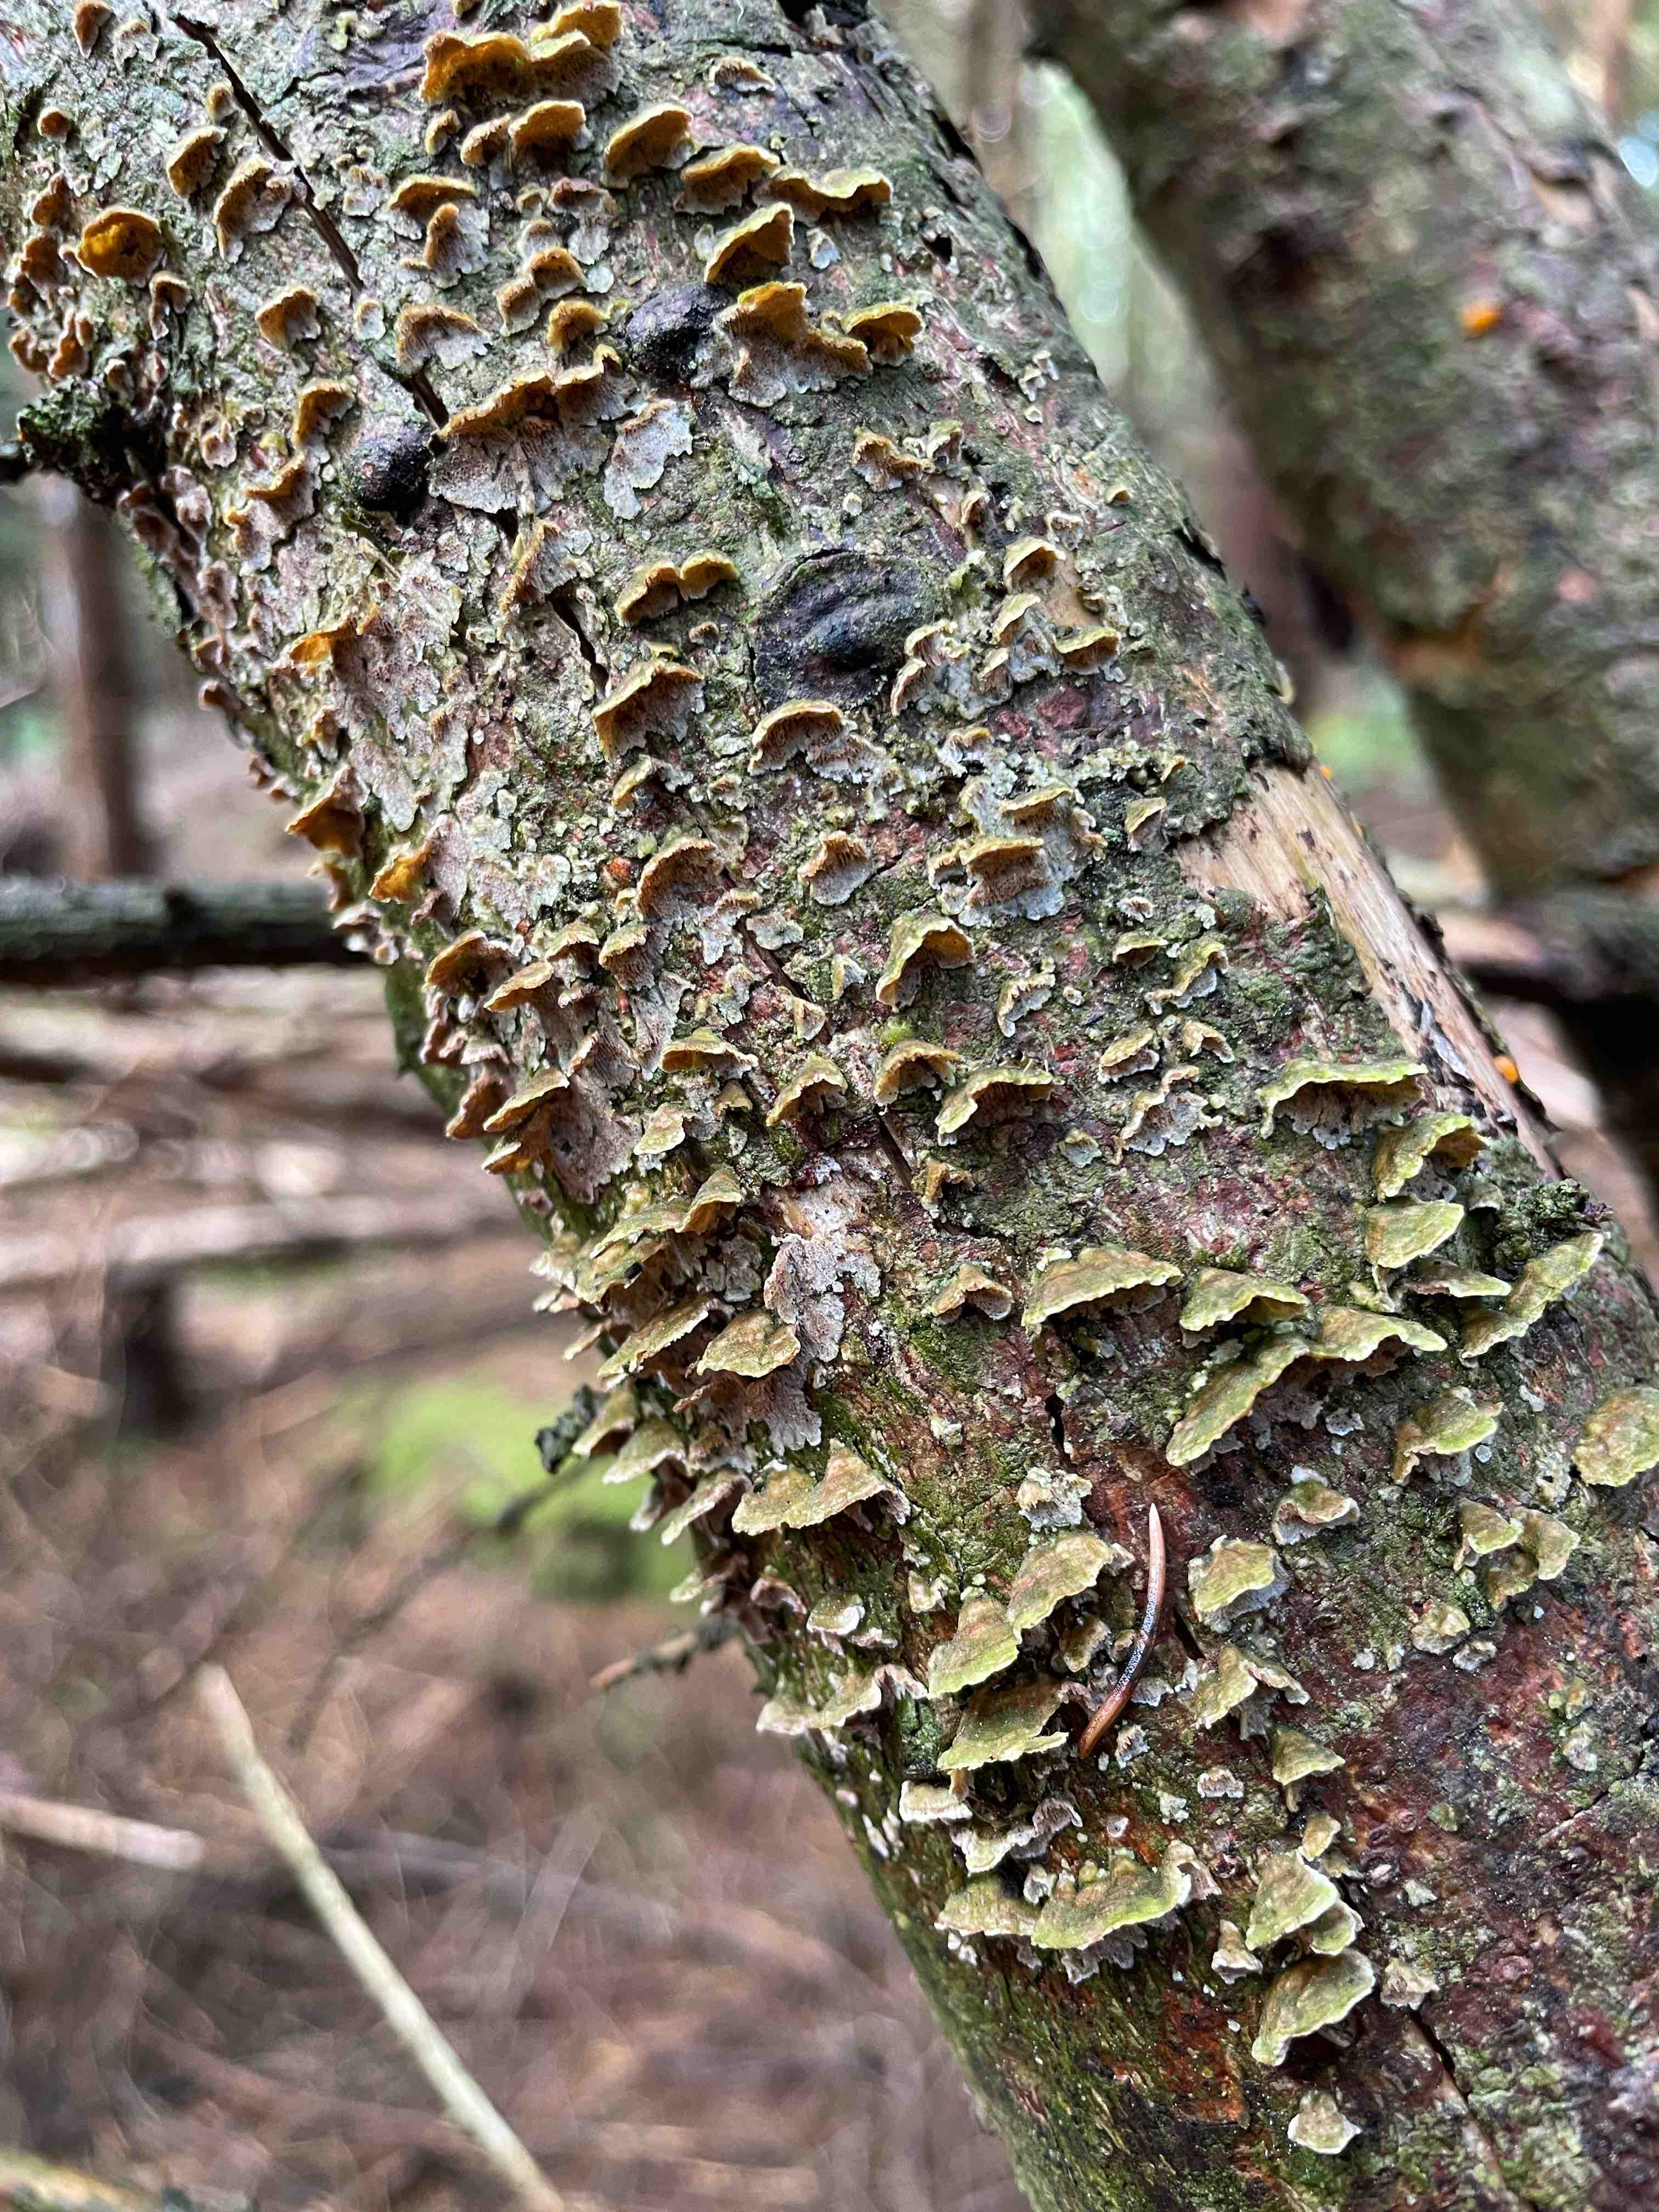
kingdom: Fungi
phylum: Basidiomycota
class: Agaricomycetes
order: Hymenochaetales
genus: Trichaptum
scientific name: Trichaptum abietinum
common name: almindelig violporesvamp
